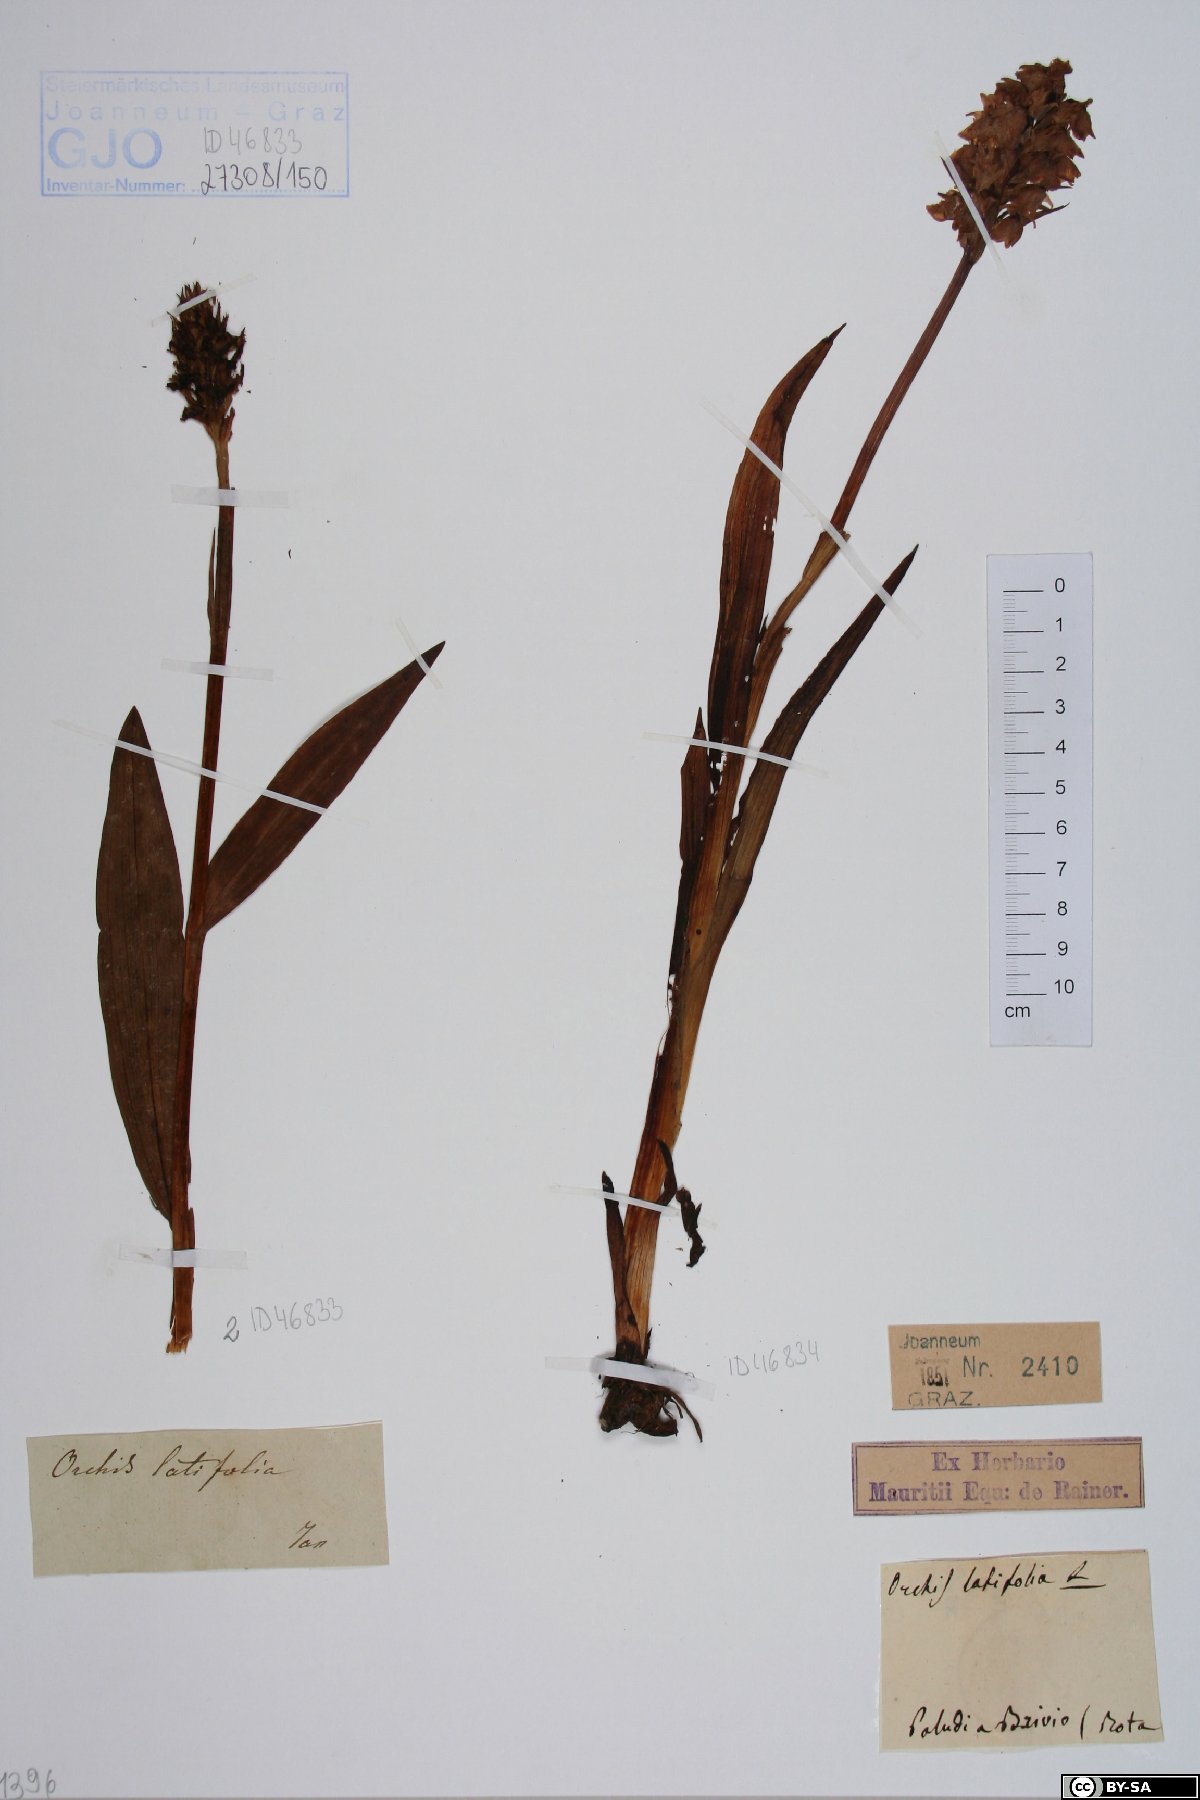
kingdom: Plantae
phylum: Tracheophyta
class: Liliopsida
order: Asparagales
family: Orchidaceae
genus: Dactylorhiza
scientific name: Dactylorhiza incarnata
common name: Early marsh-orchid
